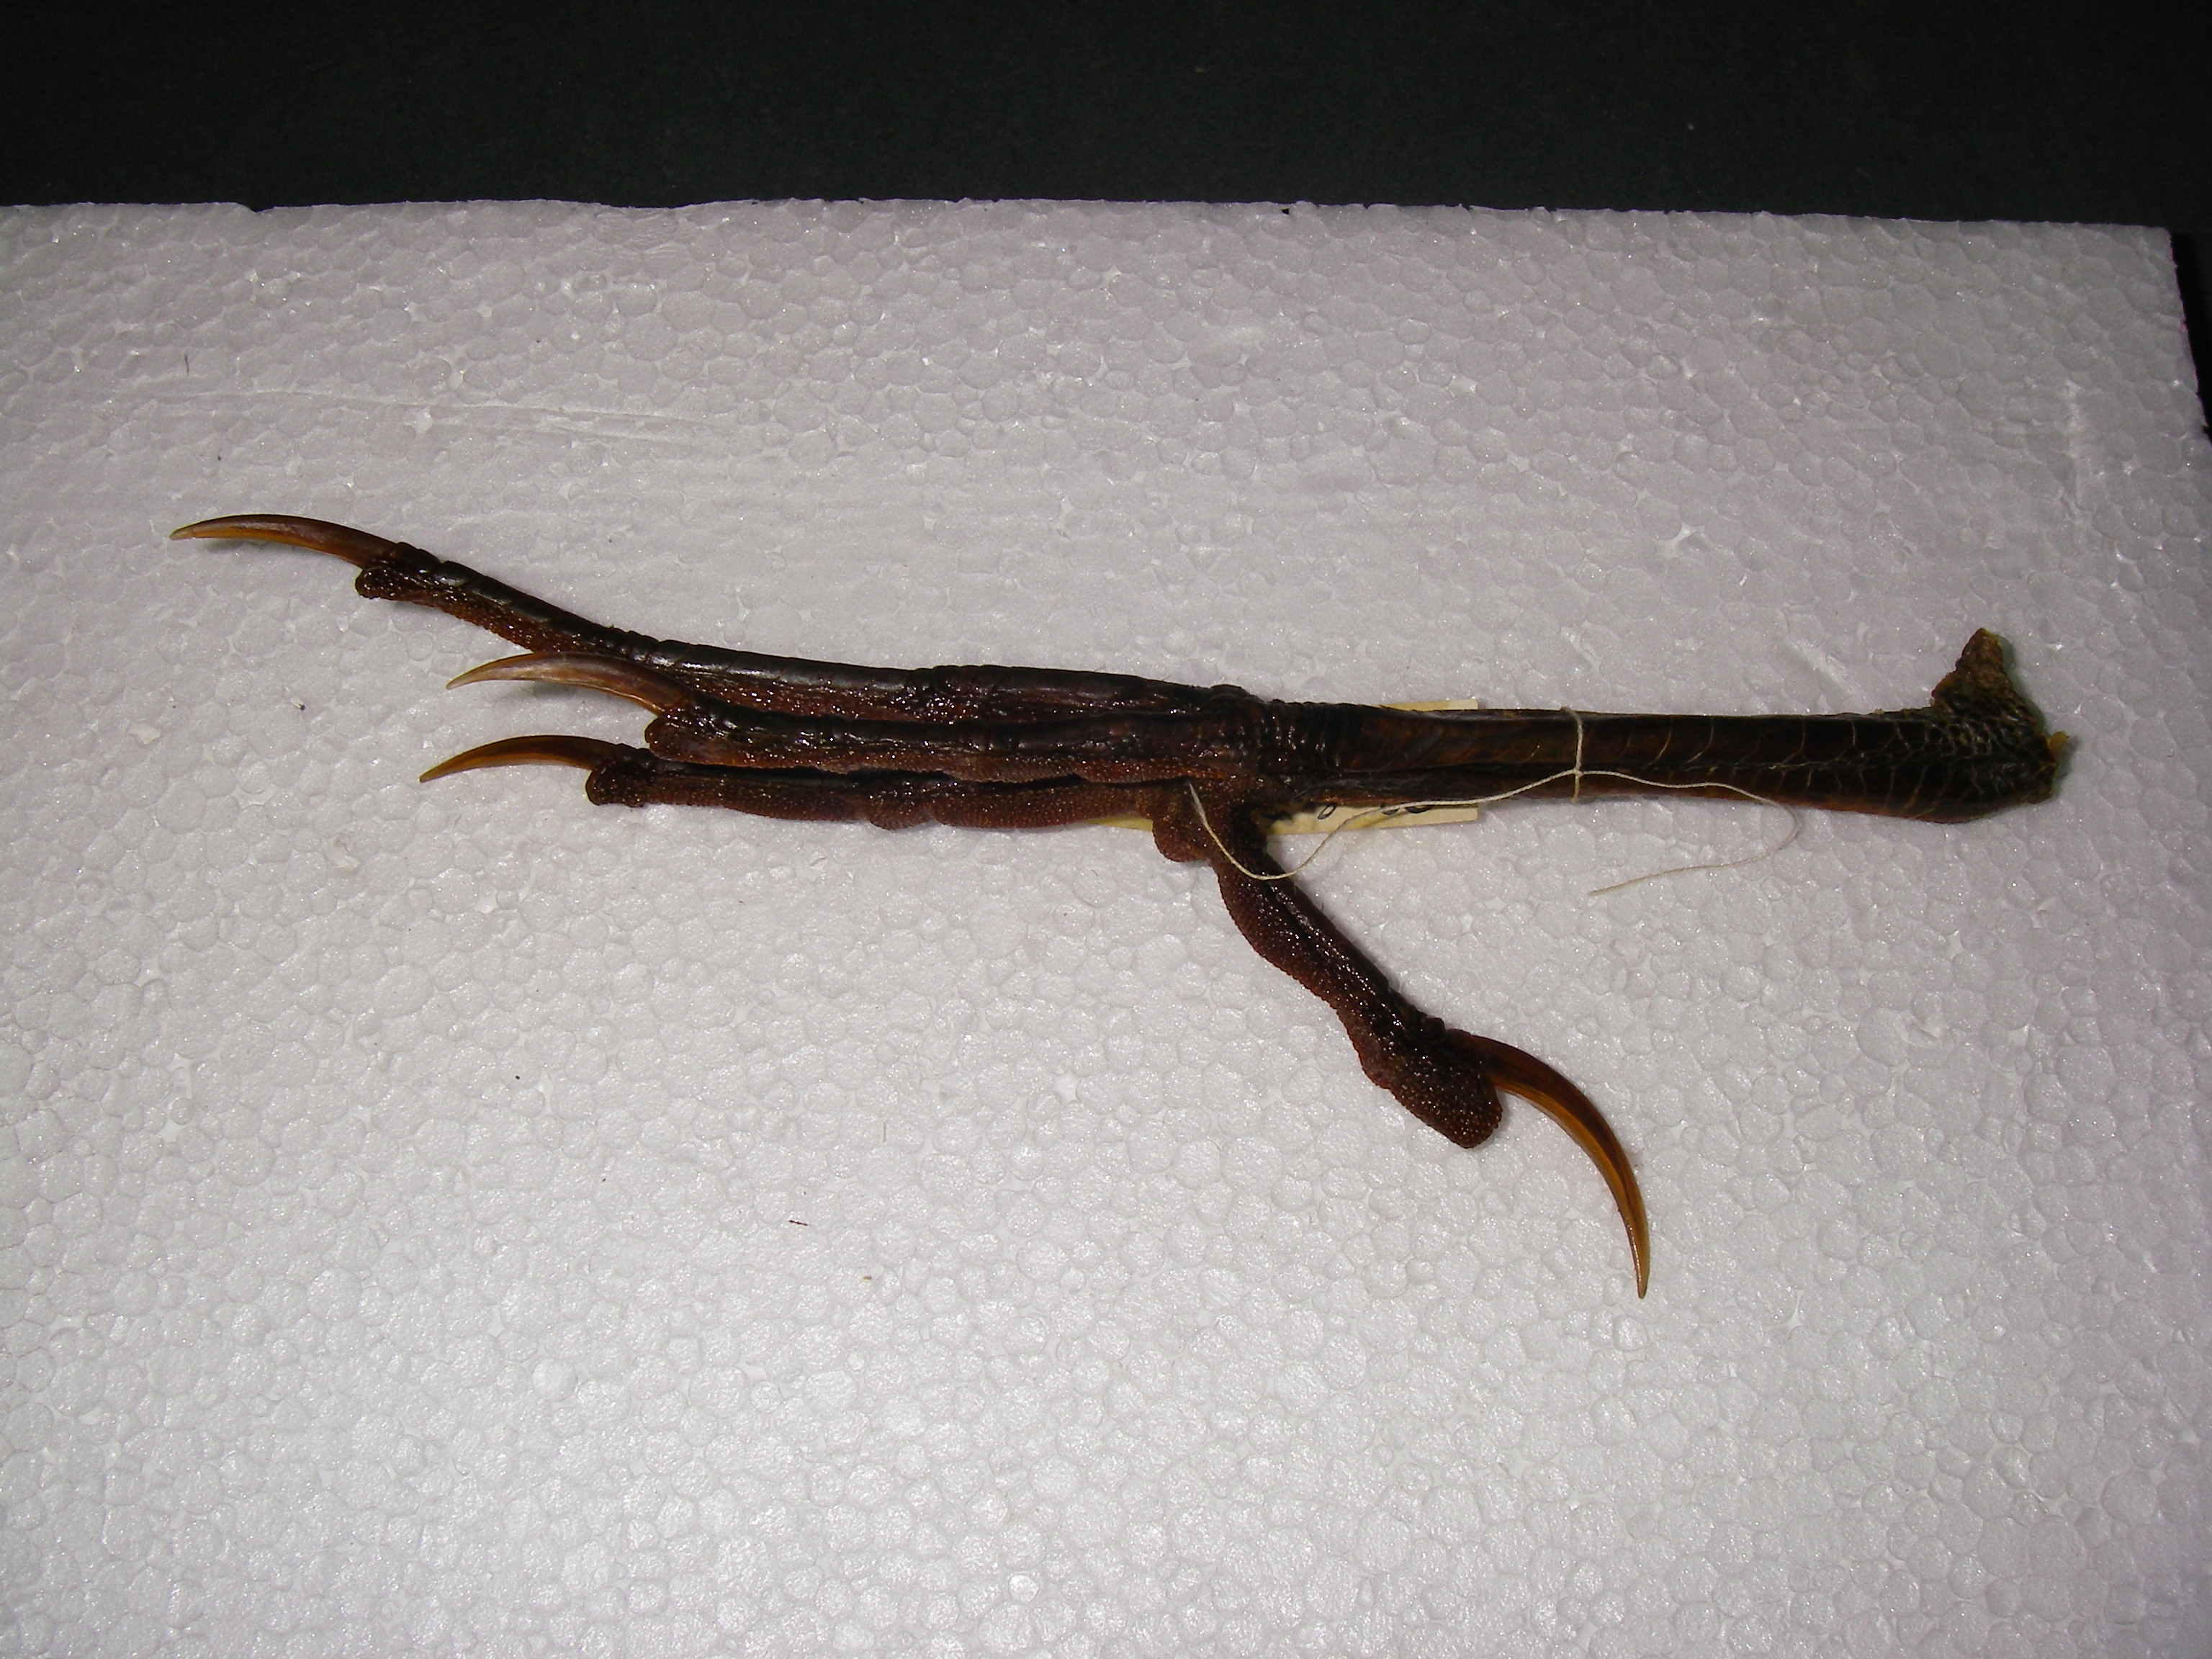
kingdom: Animalia
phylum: Chordata
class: Aves
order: Pelecaniformes
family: Ardeidae
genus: Botaurus
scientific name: Botaurus stellaris
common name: Eurasian bittern
